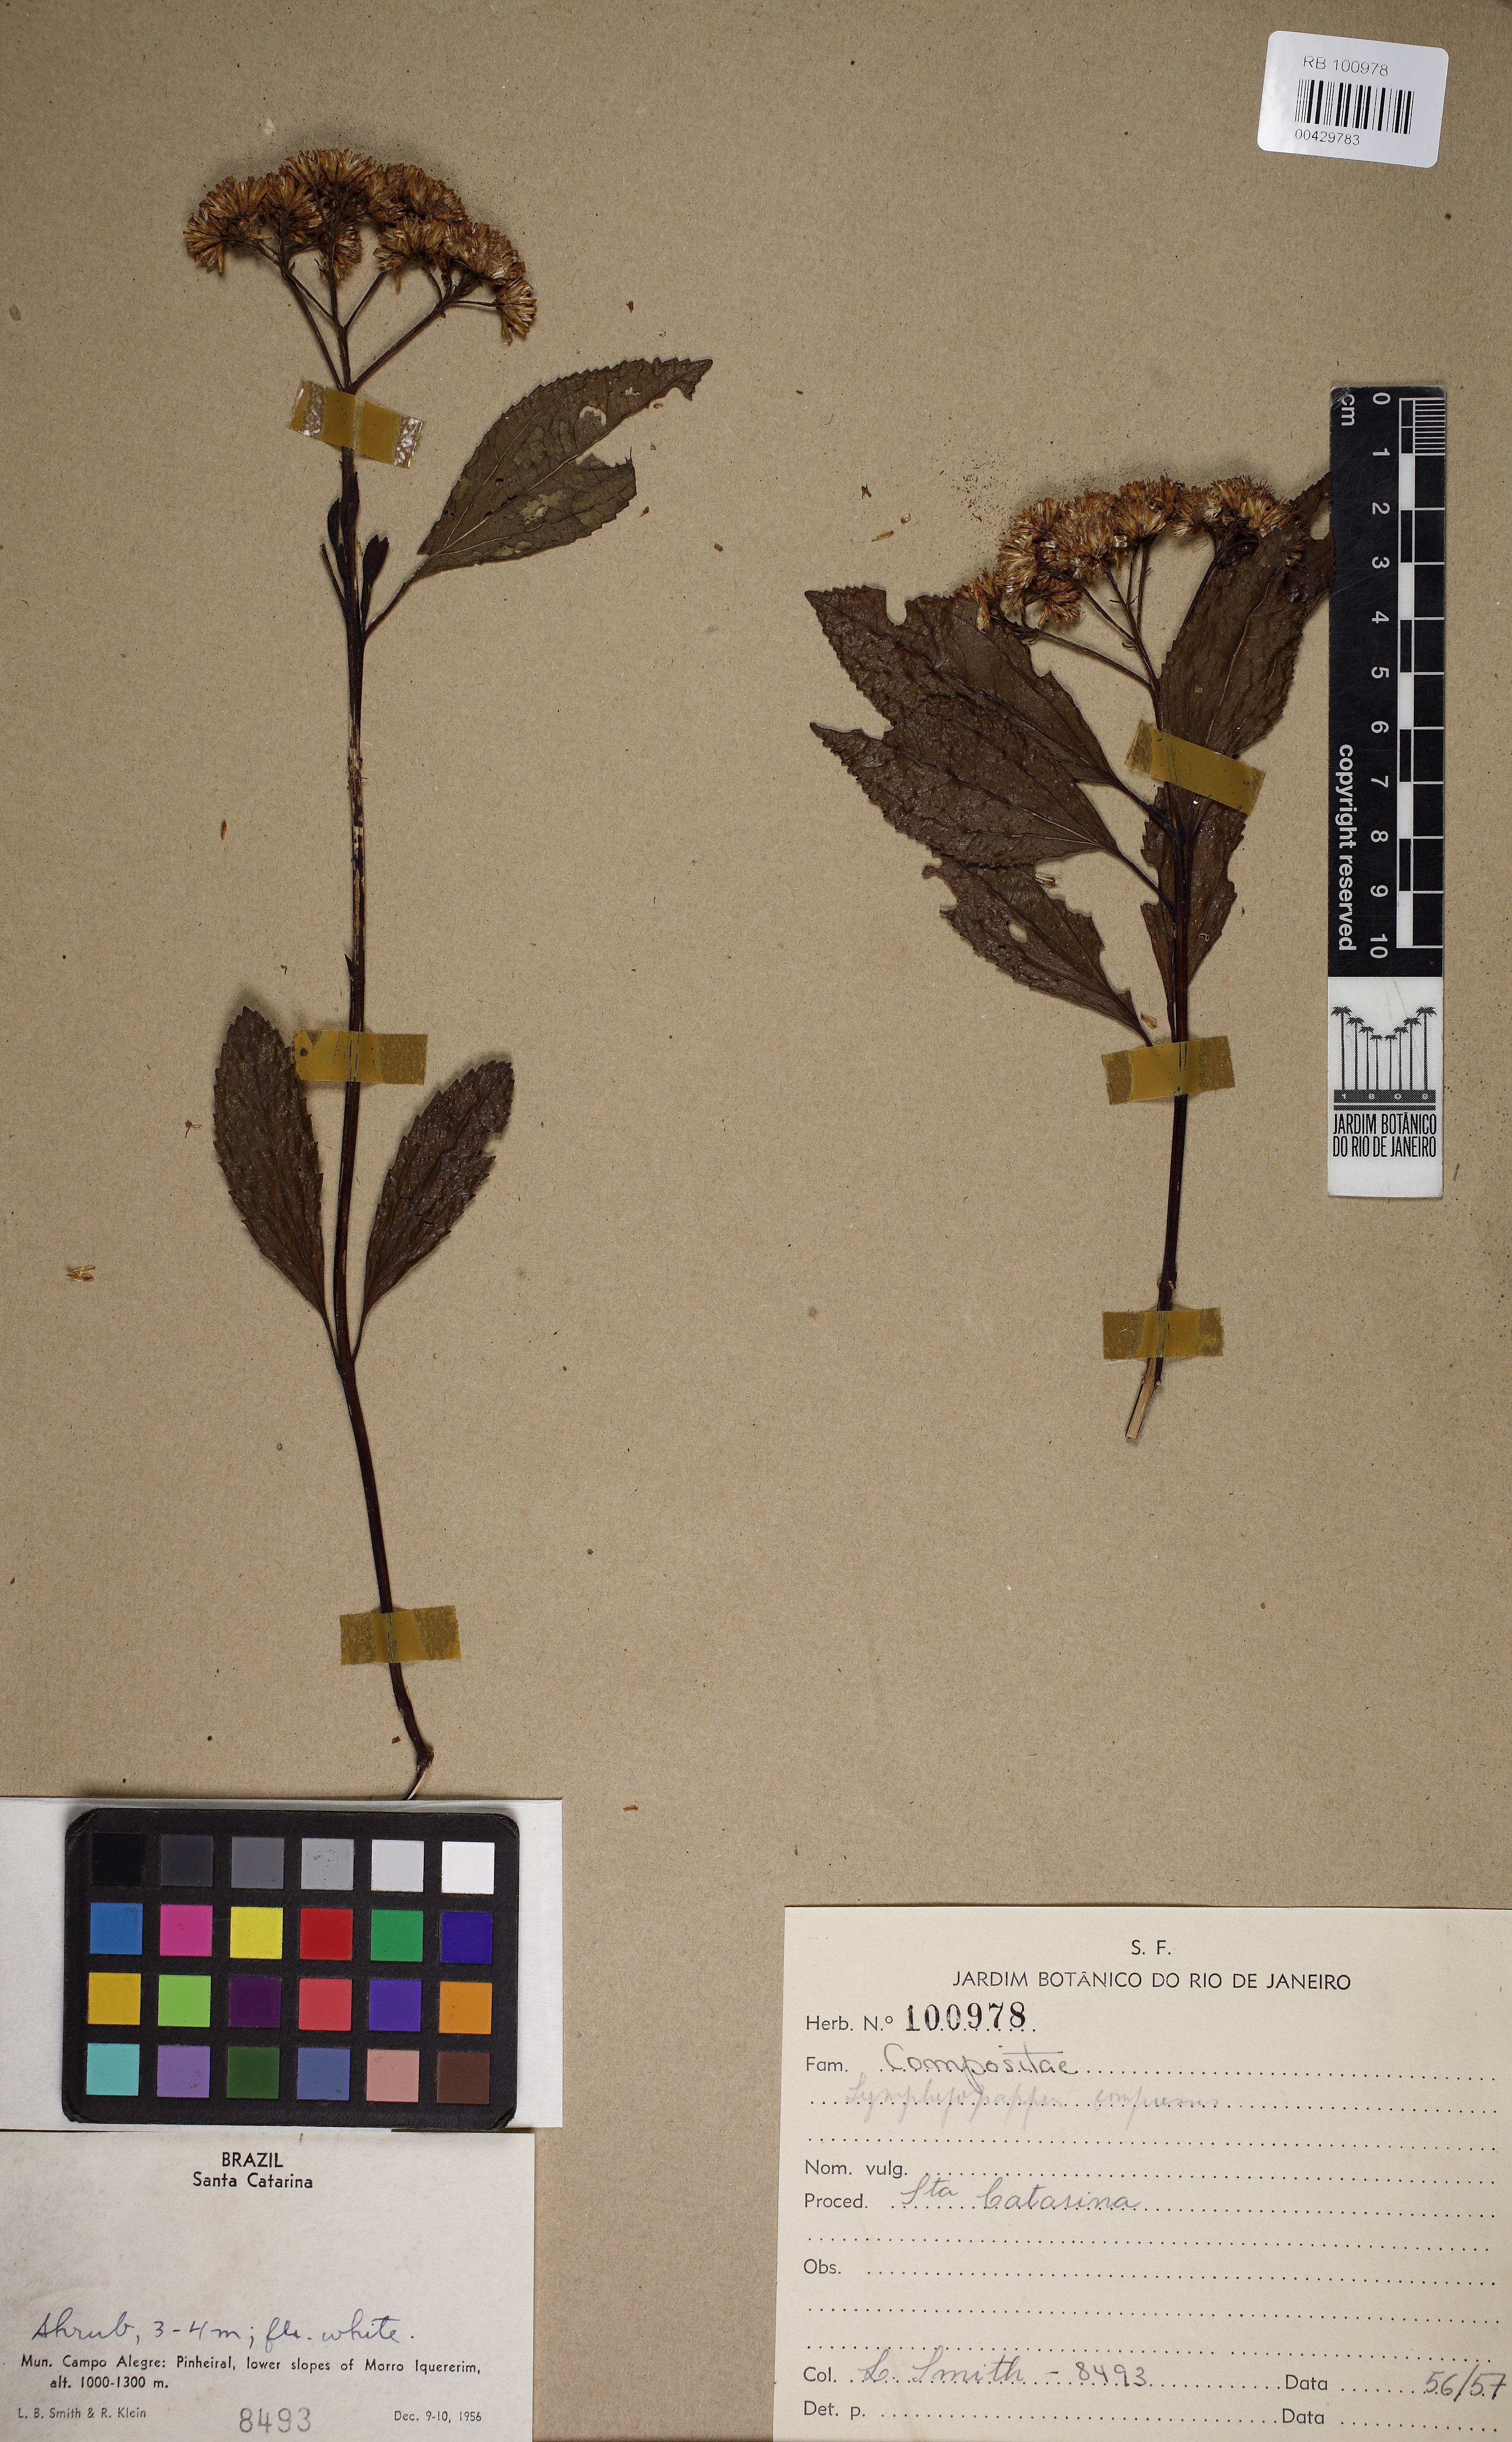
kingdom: Plantae
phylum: Tracheophyta
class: Magnoliopsida
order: Asterales
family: Asteraceae
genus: Symphyopappus
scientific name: Symphyopappus compressus
